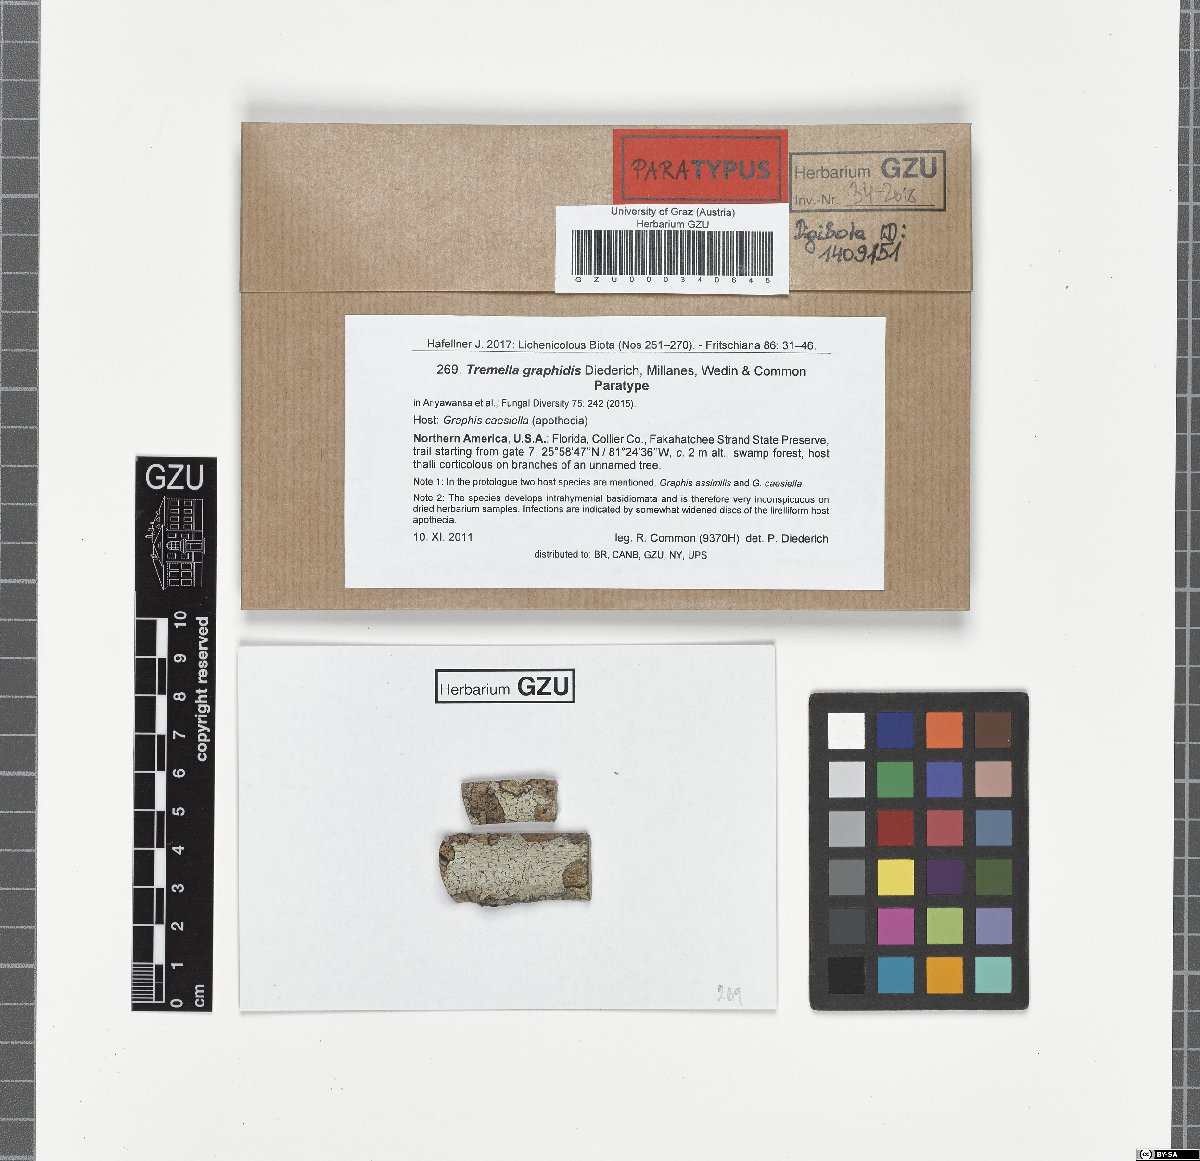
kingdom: Fungi
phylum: Basidiomycota
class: Tremellomycetes
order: Tremellales
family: Tremellaceae
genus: Tremella
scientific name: Tremella graphidis
